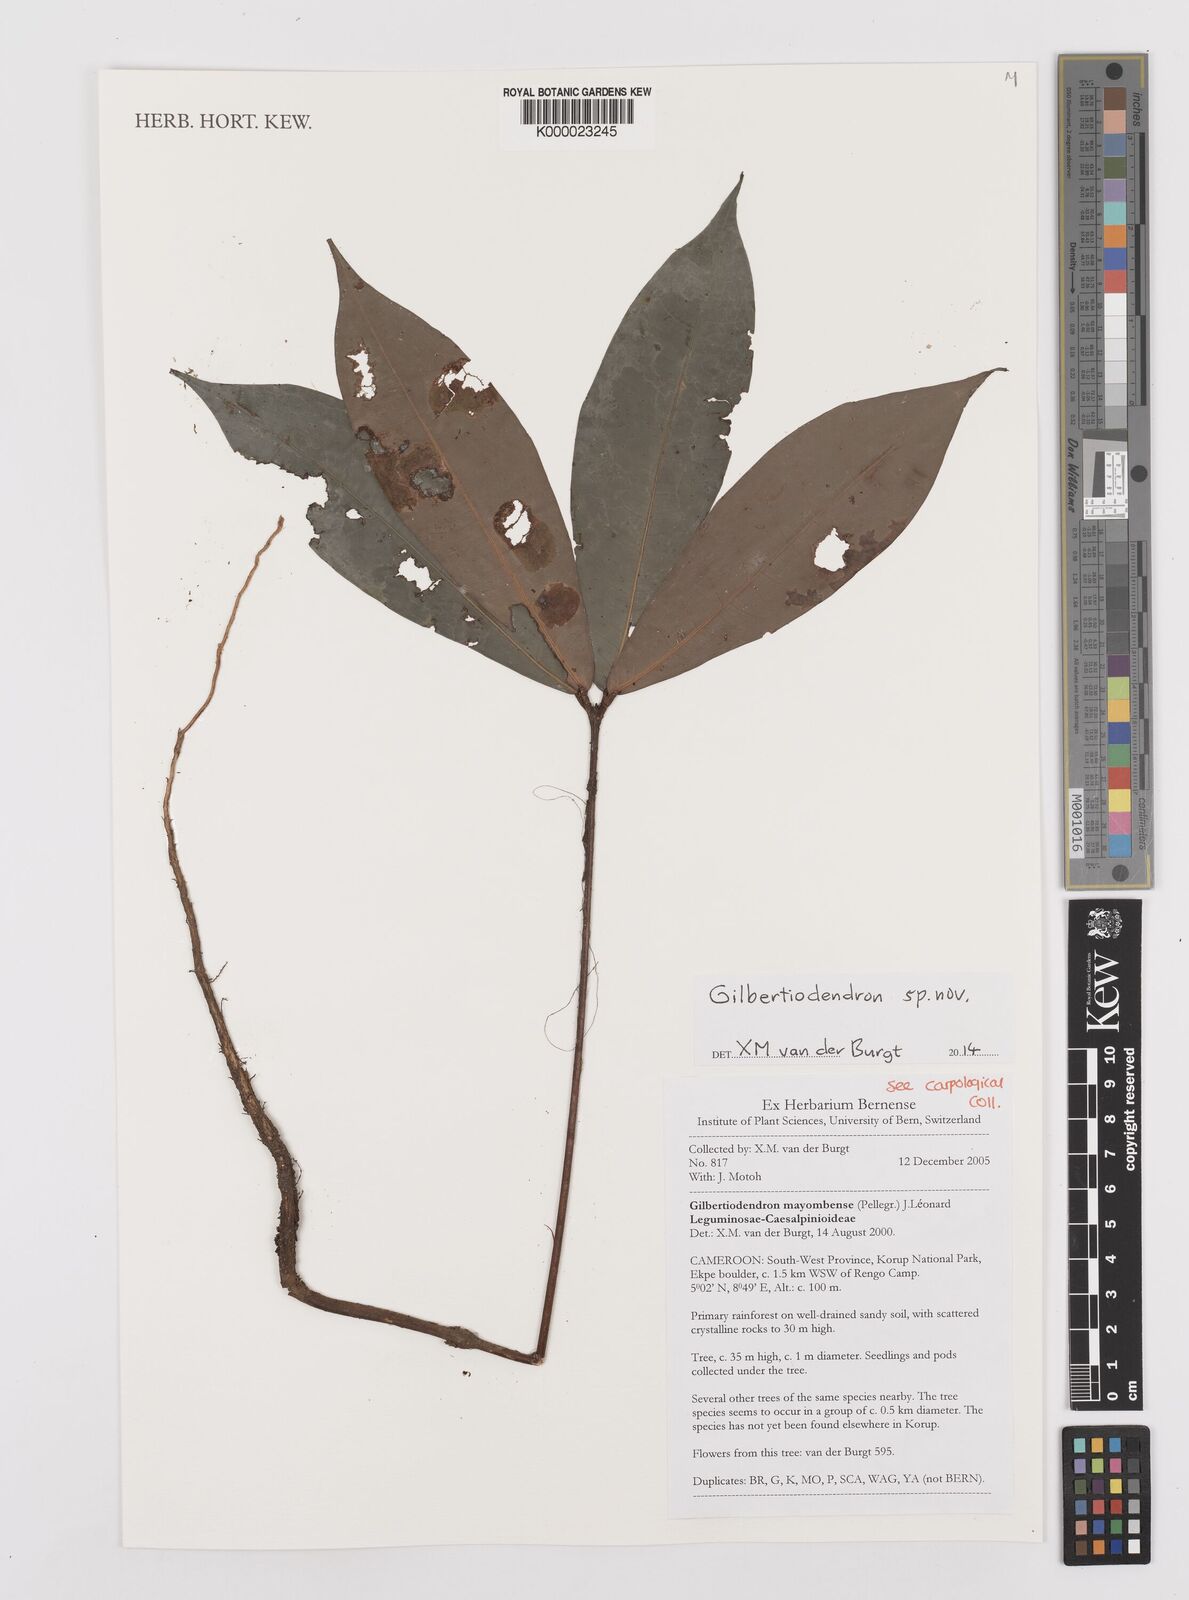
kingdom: Plantae
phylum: Tracheophyta
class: Magnoliopsida
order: Fabales
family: Fabaceae
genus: Gilbertiodendron
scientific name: Gilbertiodendron
